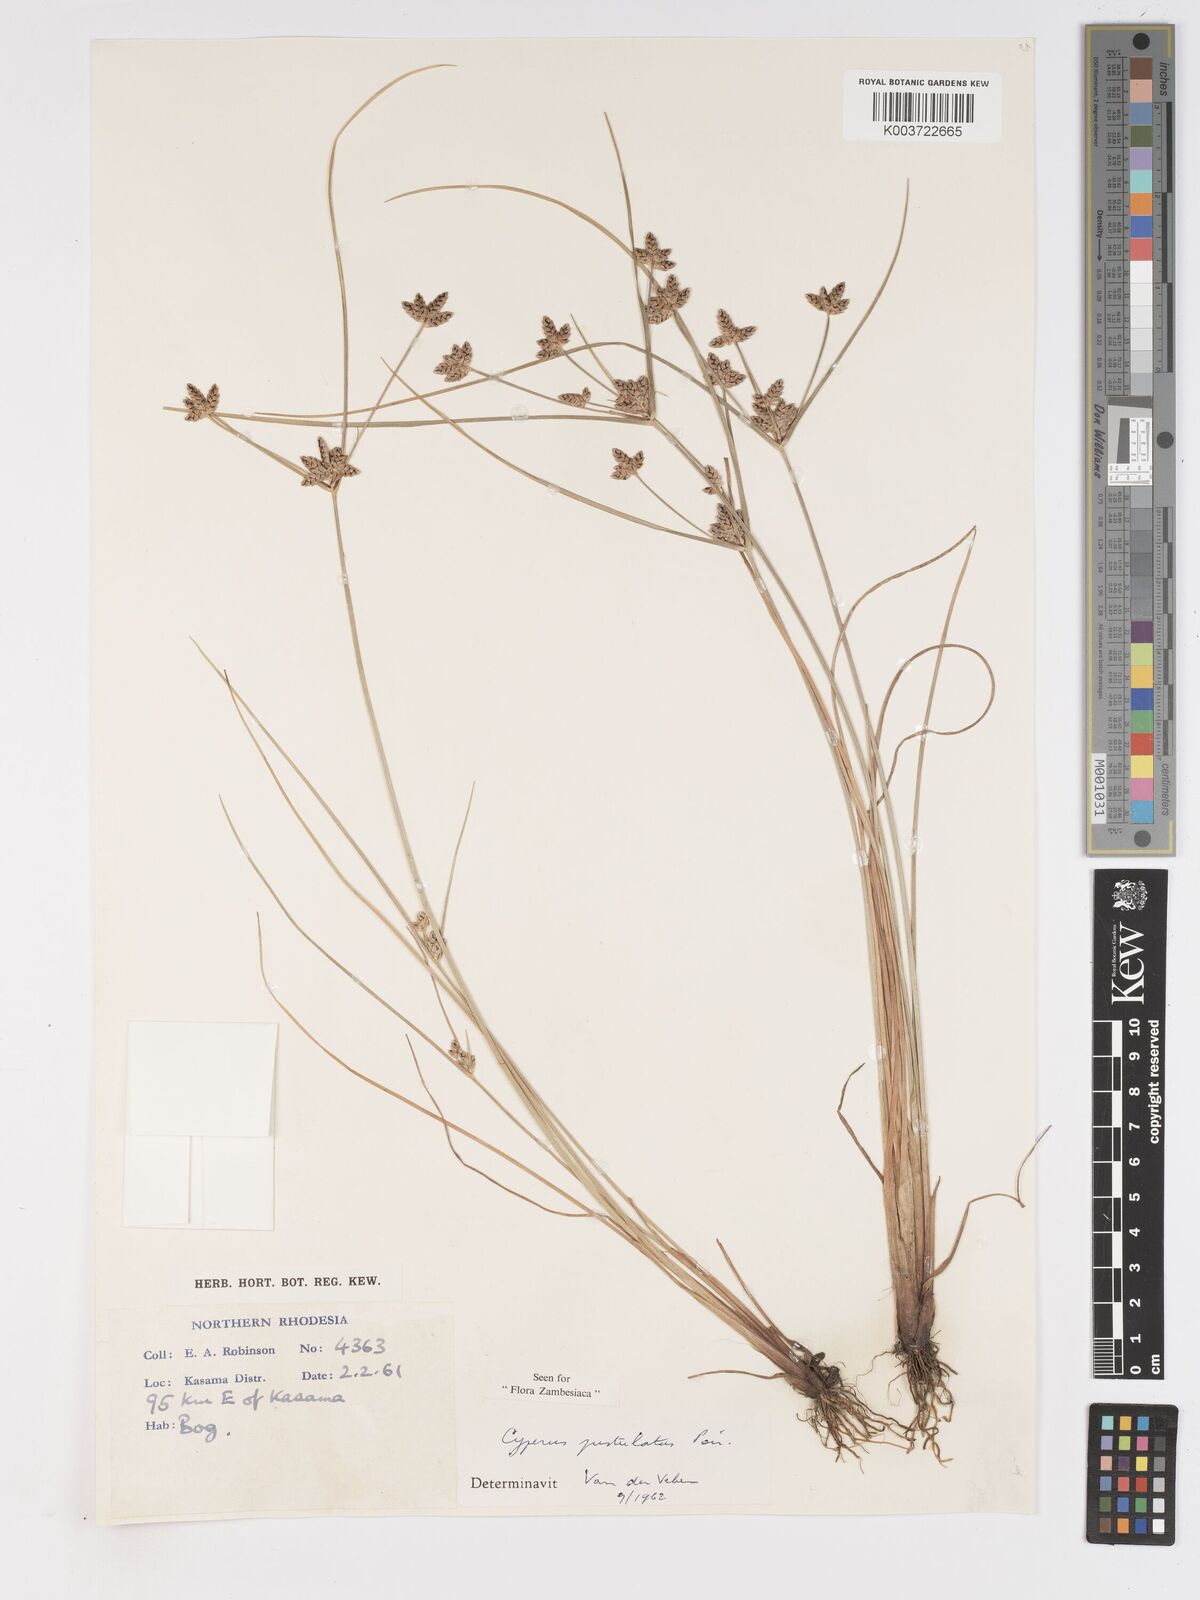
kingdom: Plantae
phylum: Tracheophyta
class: Liliopsida
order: Poales
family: Cyperaceae
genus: Cyperus
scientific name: Cyperus pustulatus
